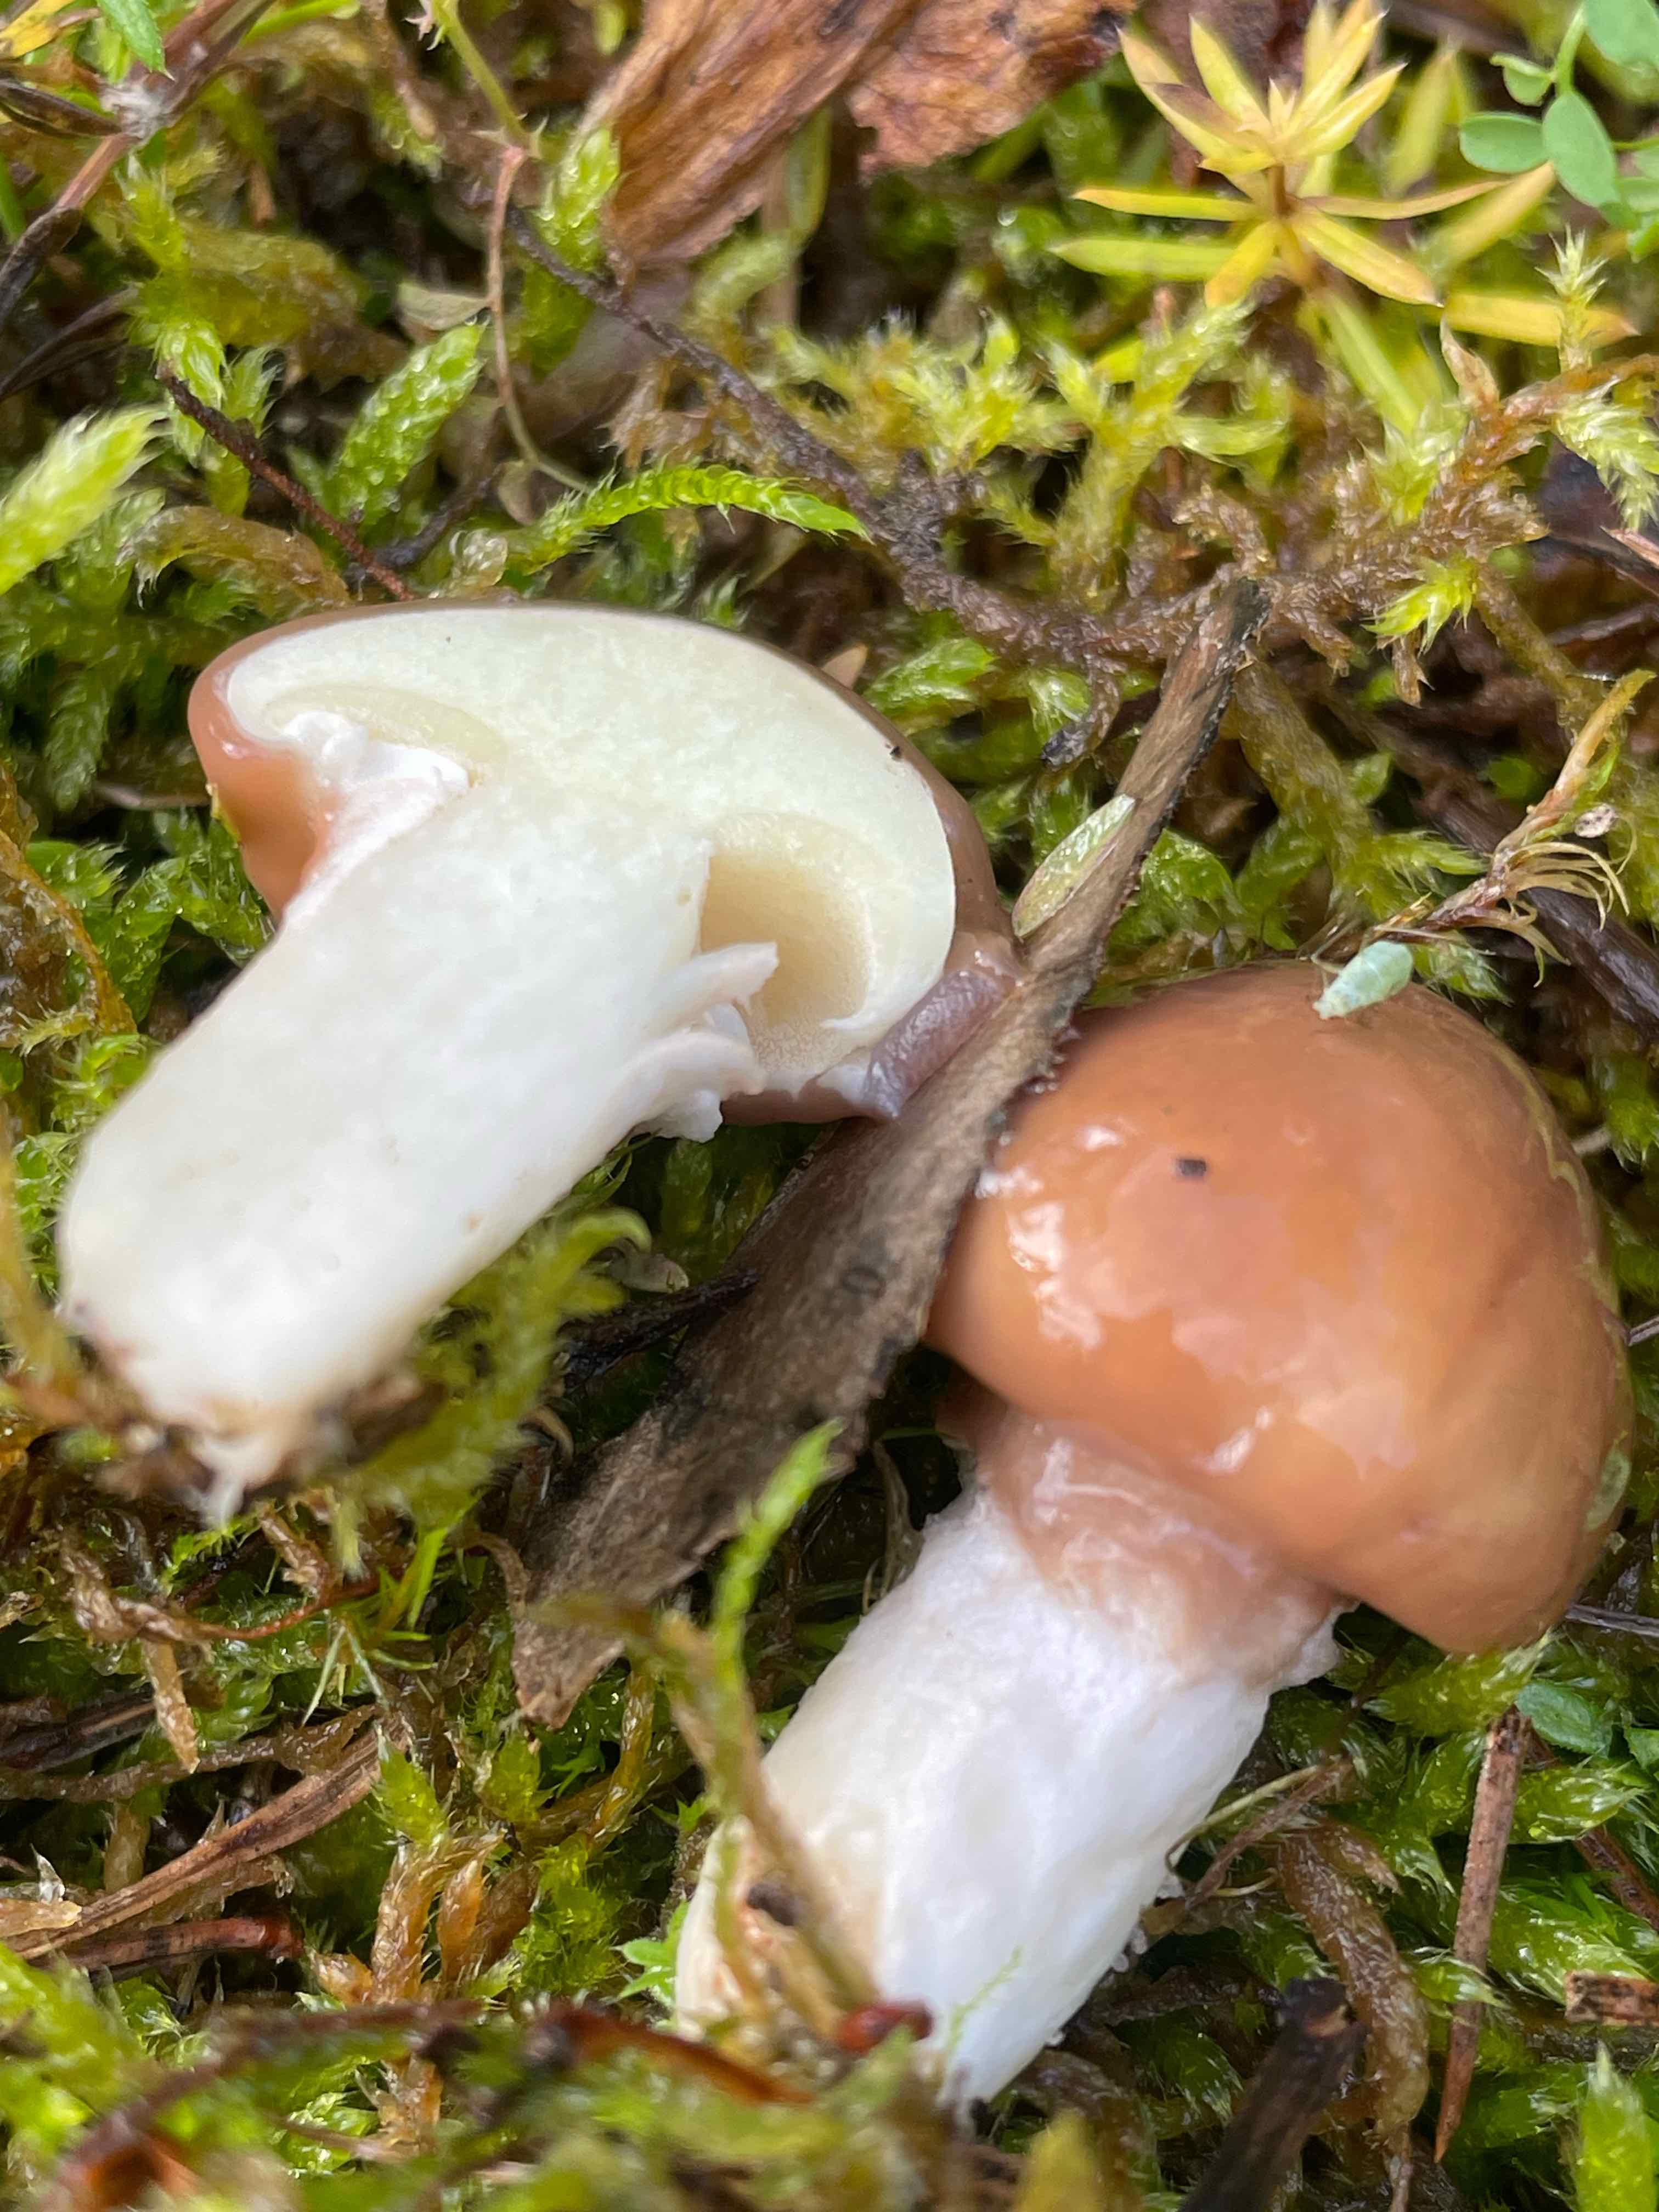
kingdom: Fungi
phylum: Basidiomycota
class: Agaricomycetes
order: Boletales
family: Suillaceae
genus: Suillus
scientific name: Suillus luteus
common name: brungul slimrørhat
